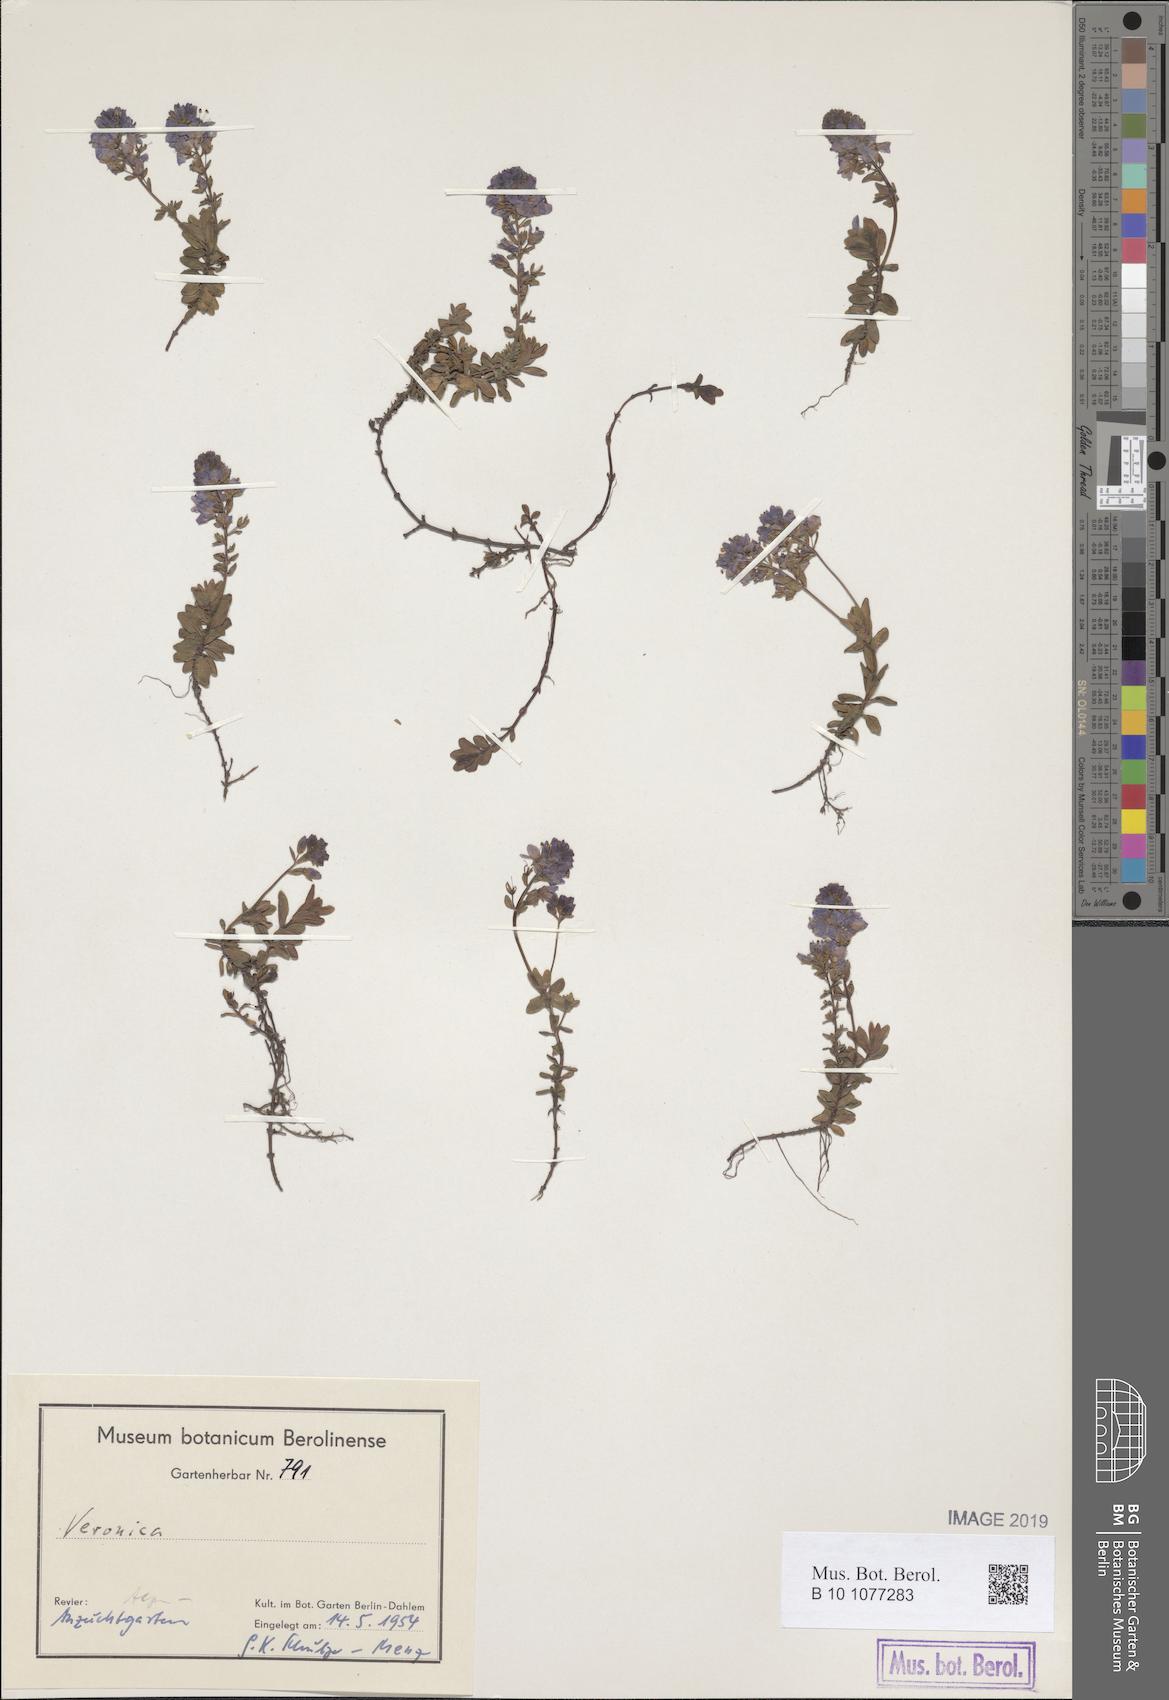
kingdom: Plantae
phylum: Tracheophyta
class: Magnoliopsida
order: Lamiales
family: Plantaginaceae
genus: Veronica
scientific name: Veronica
